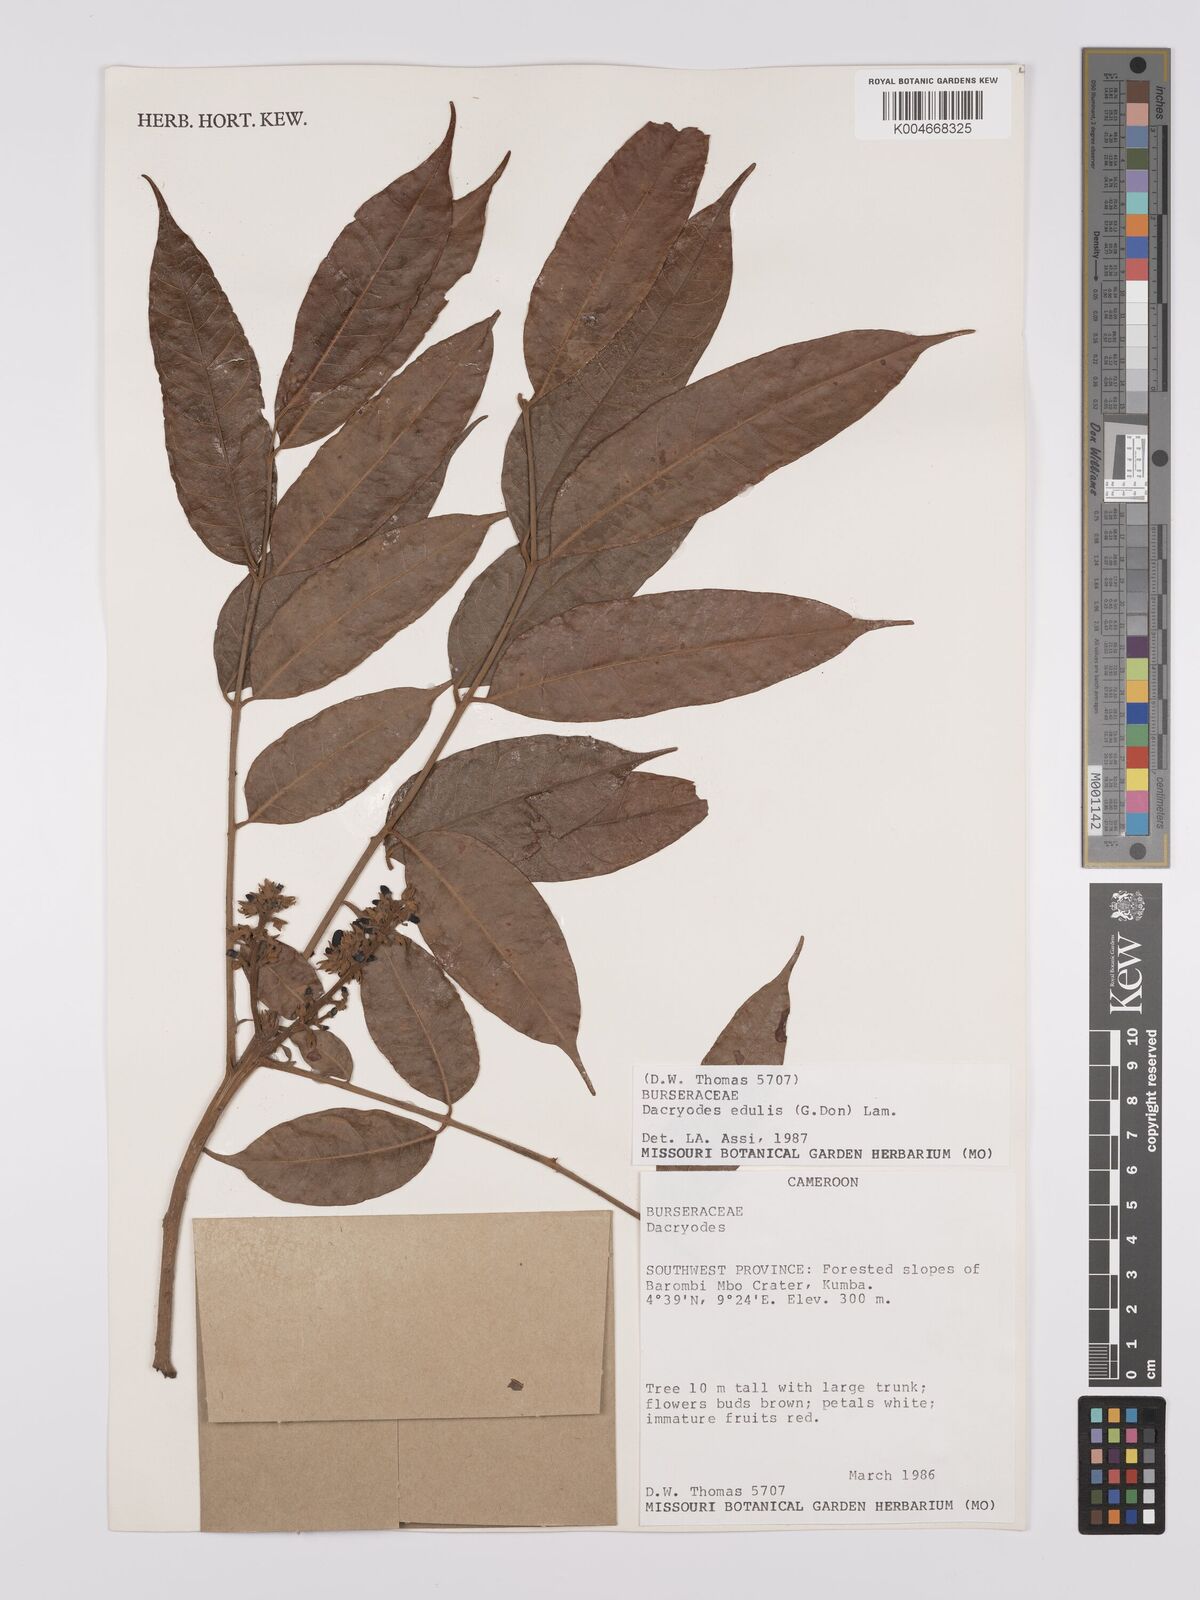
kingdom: Plantae
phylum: Tracheophyta
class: Magnoliopsida
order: Sapindales
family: Burseraceae
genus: Pachylobus
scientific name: Pachylobus edulis
